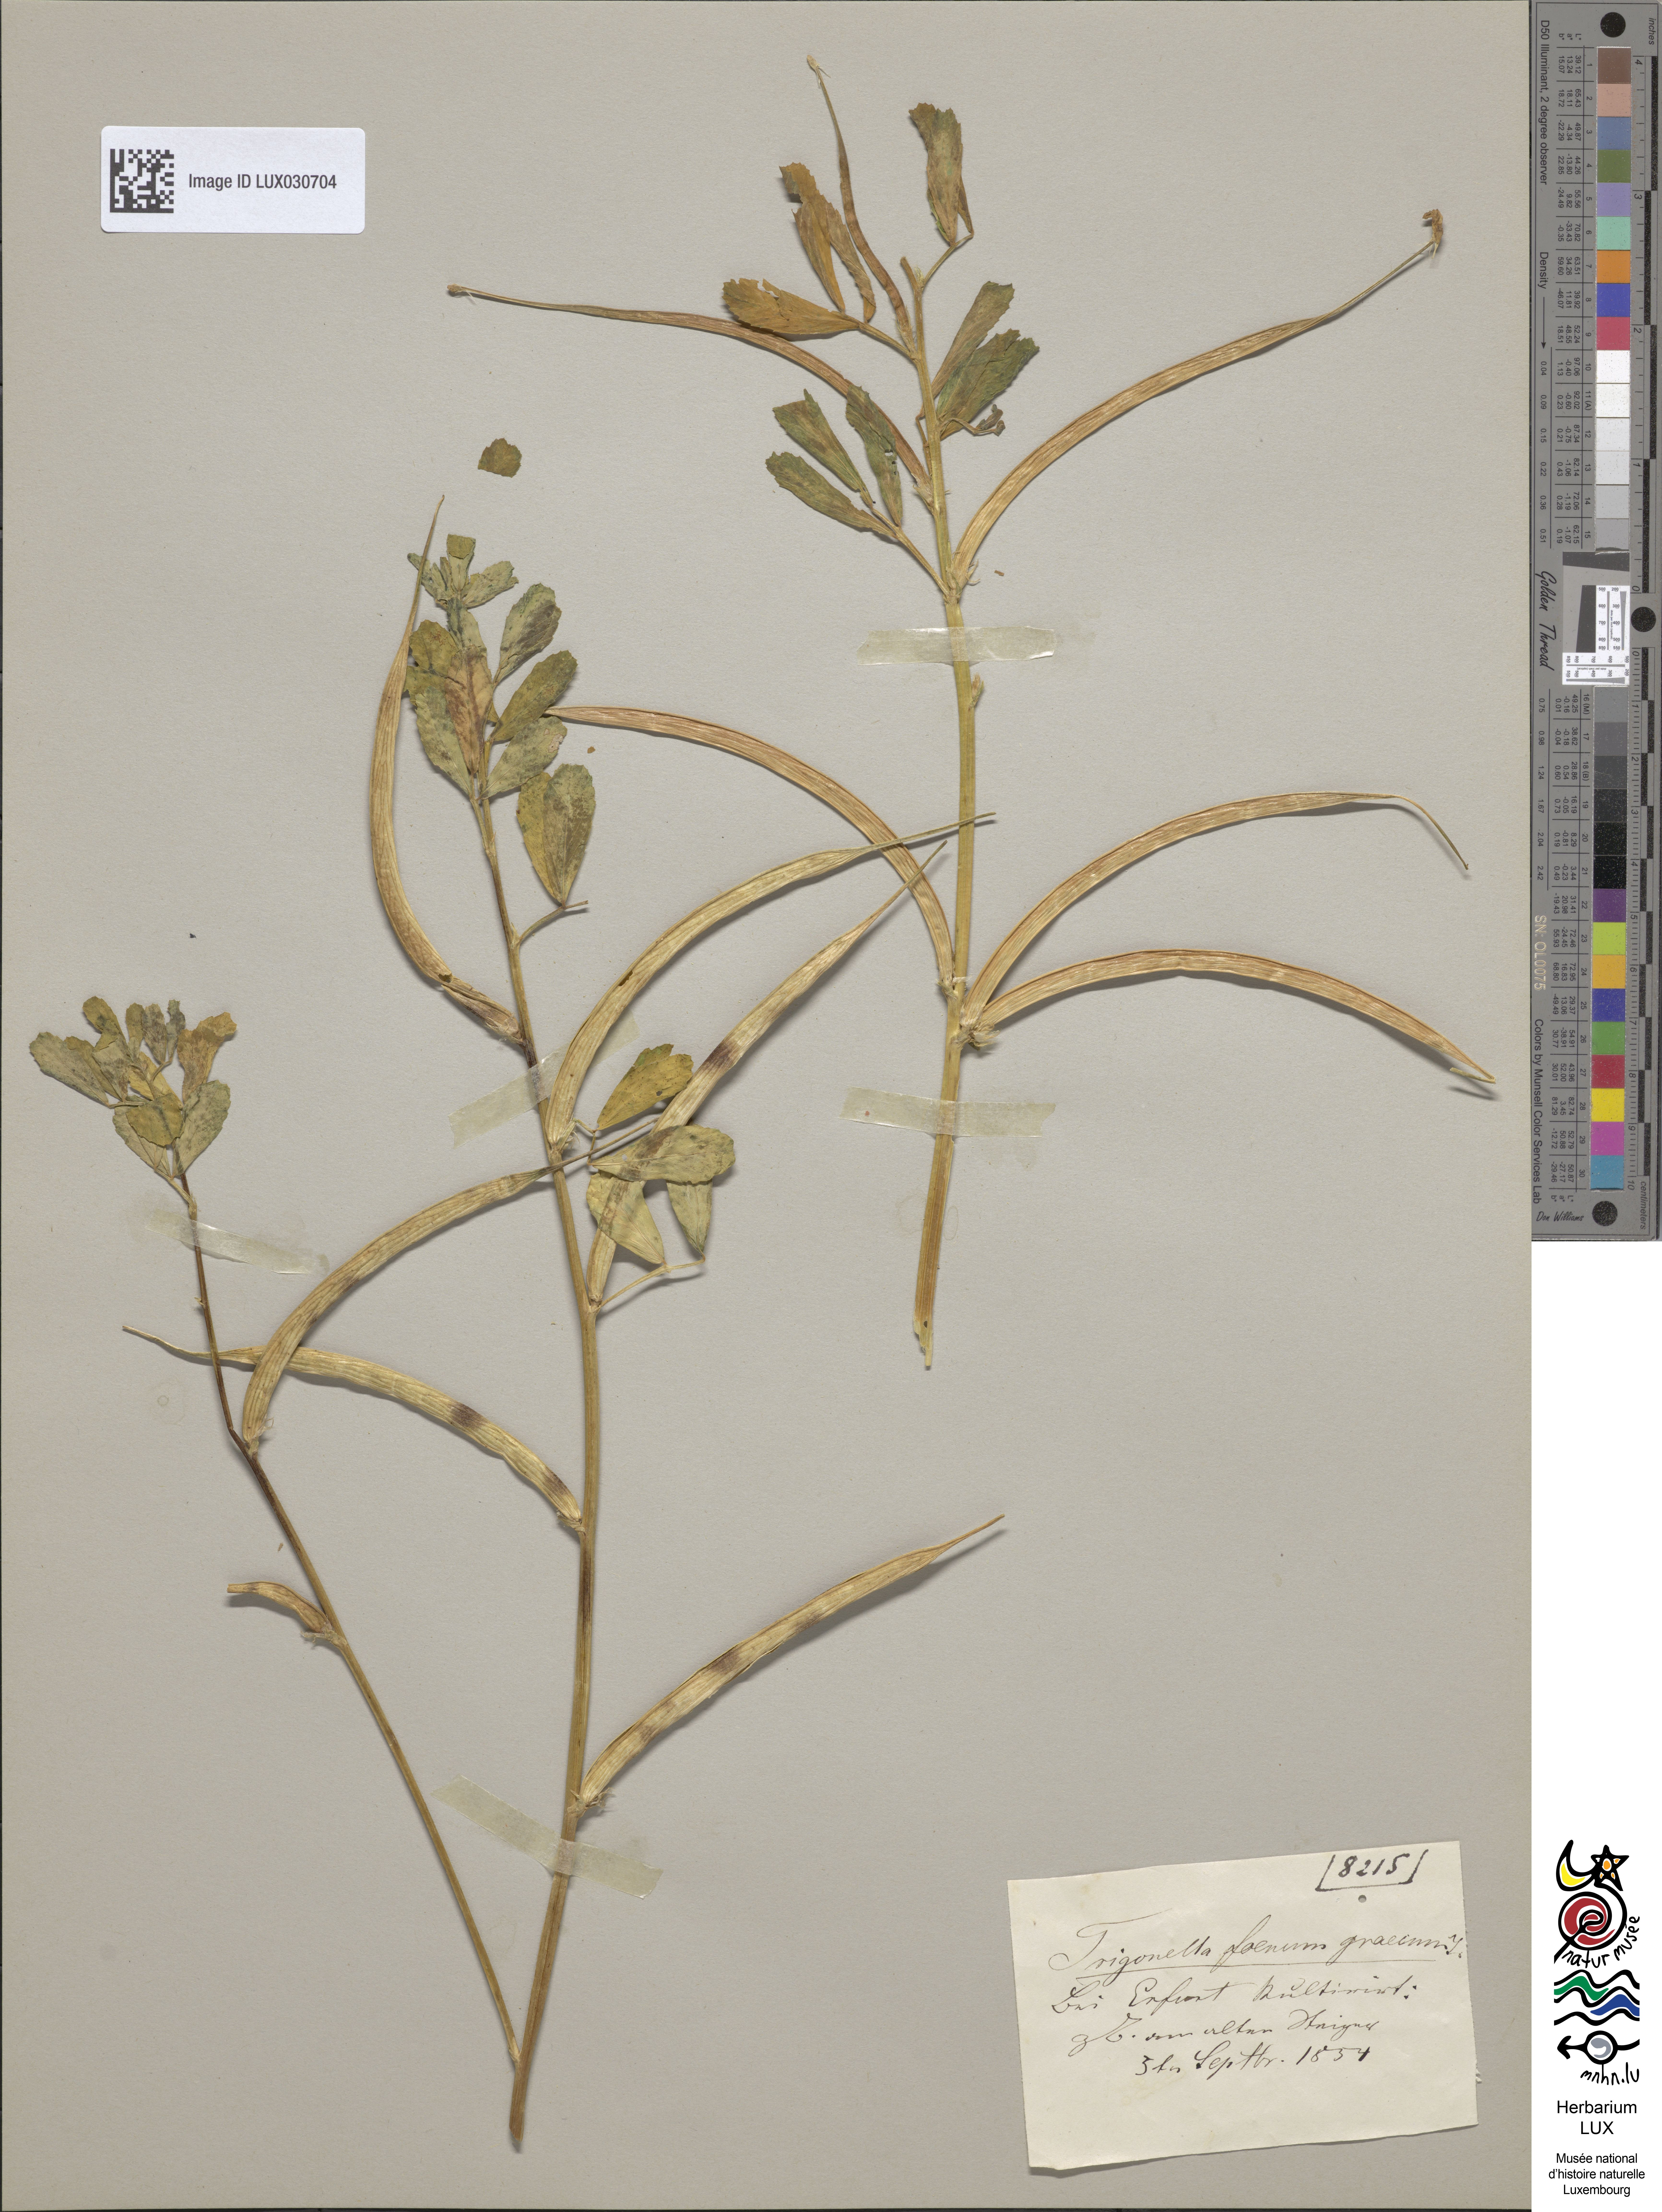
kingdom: Plantae
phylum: Tracheophyta
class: Magnoliopsida
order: Fabales
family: Fabaceae
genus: Trigonella
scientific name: Trigonella
